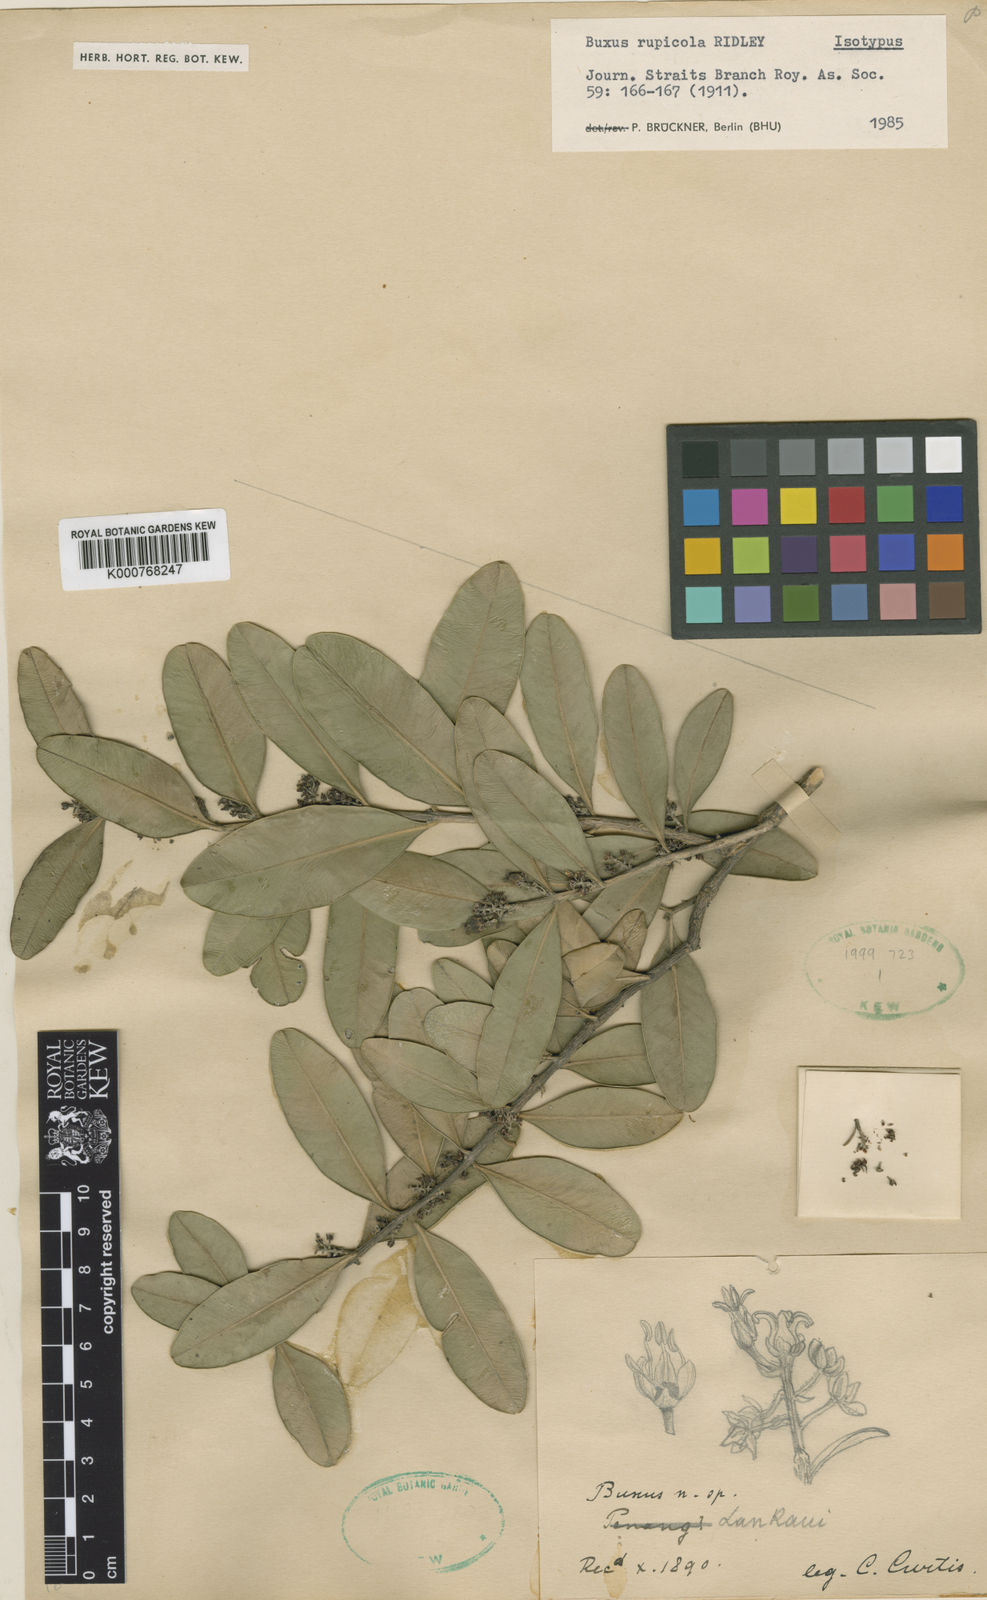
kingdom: Plantae
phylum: Tracheophyta
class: Magnoliopsida
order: Buxales
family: Buxaceae
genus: Buxus
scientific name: Buxus rupicola
